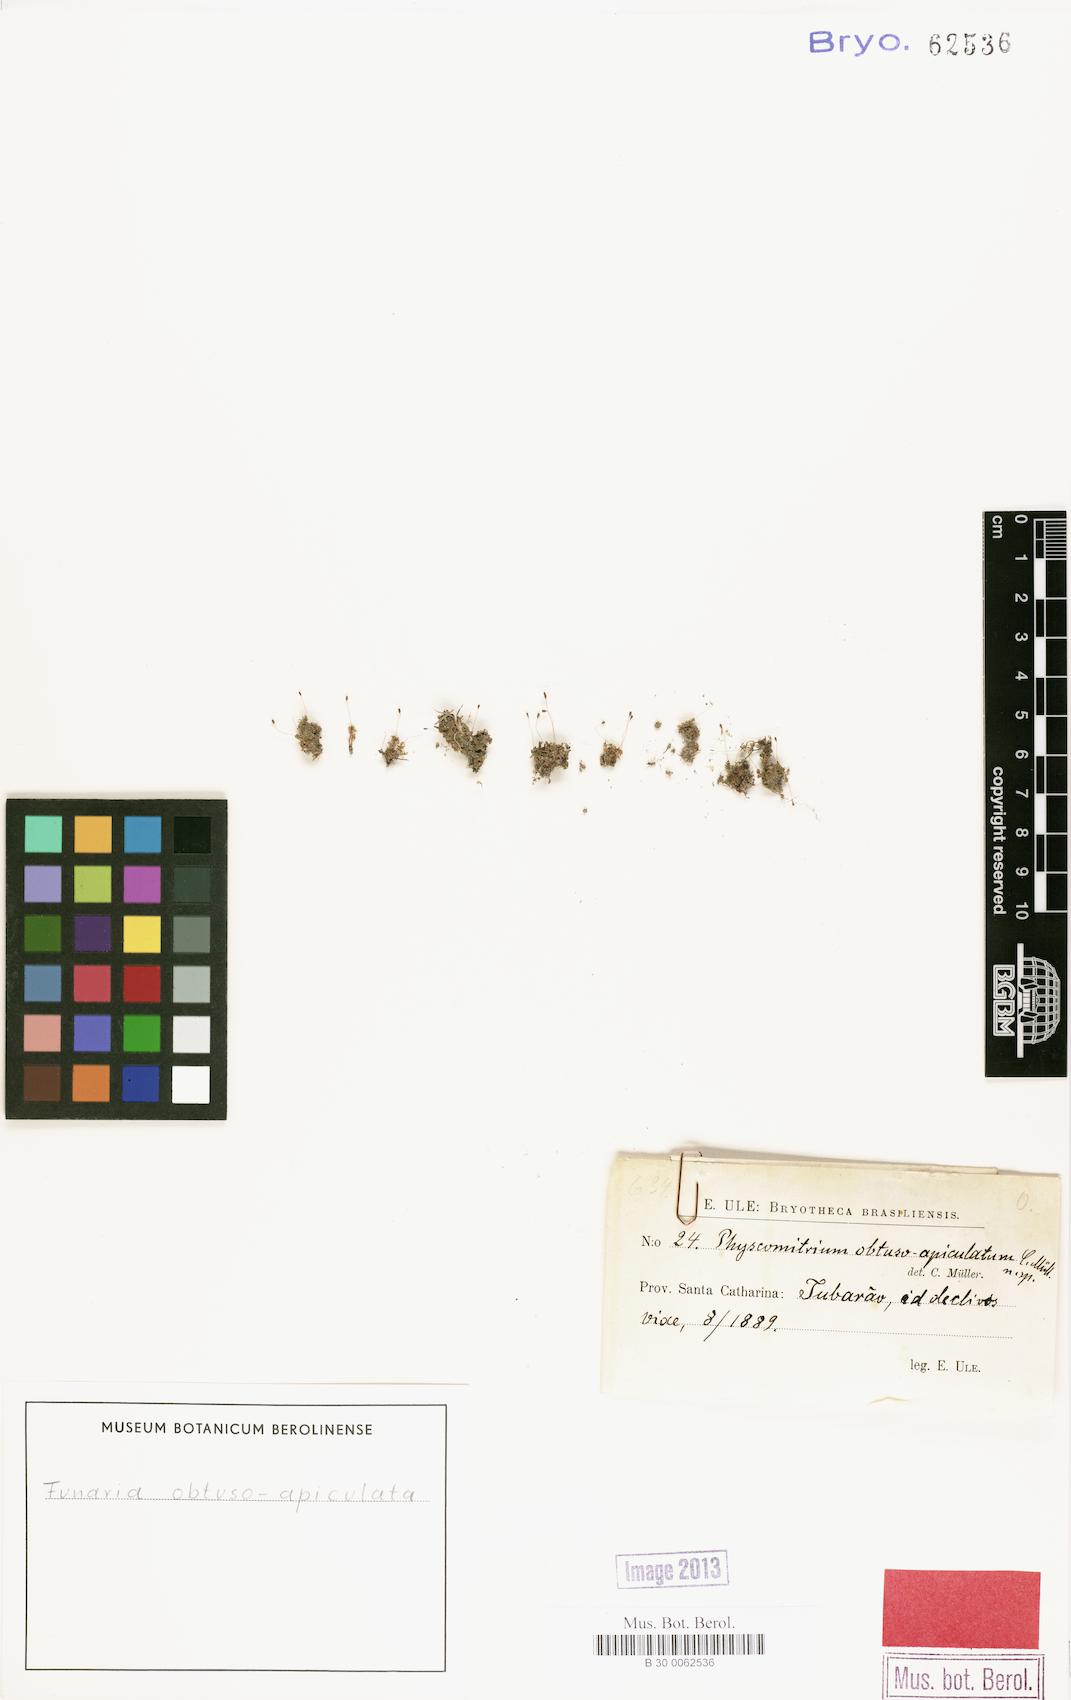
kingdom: Plantae
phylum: Bryophyta
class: Bryopsida
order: Funariales
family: Funariaceae
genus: Entosthodon
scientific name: Entosthodon ramulosus
